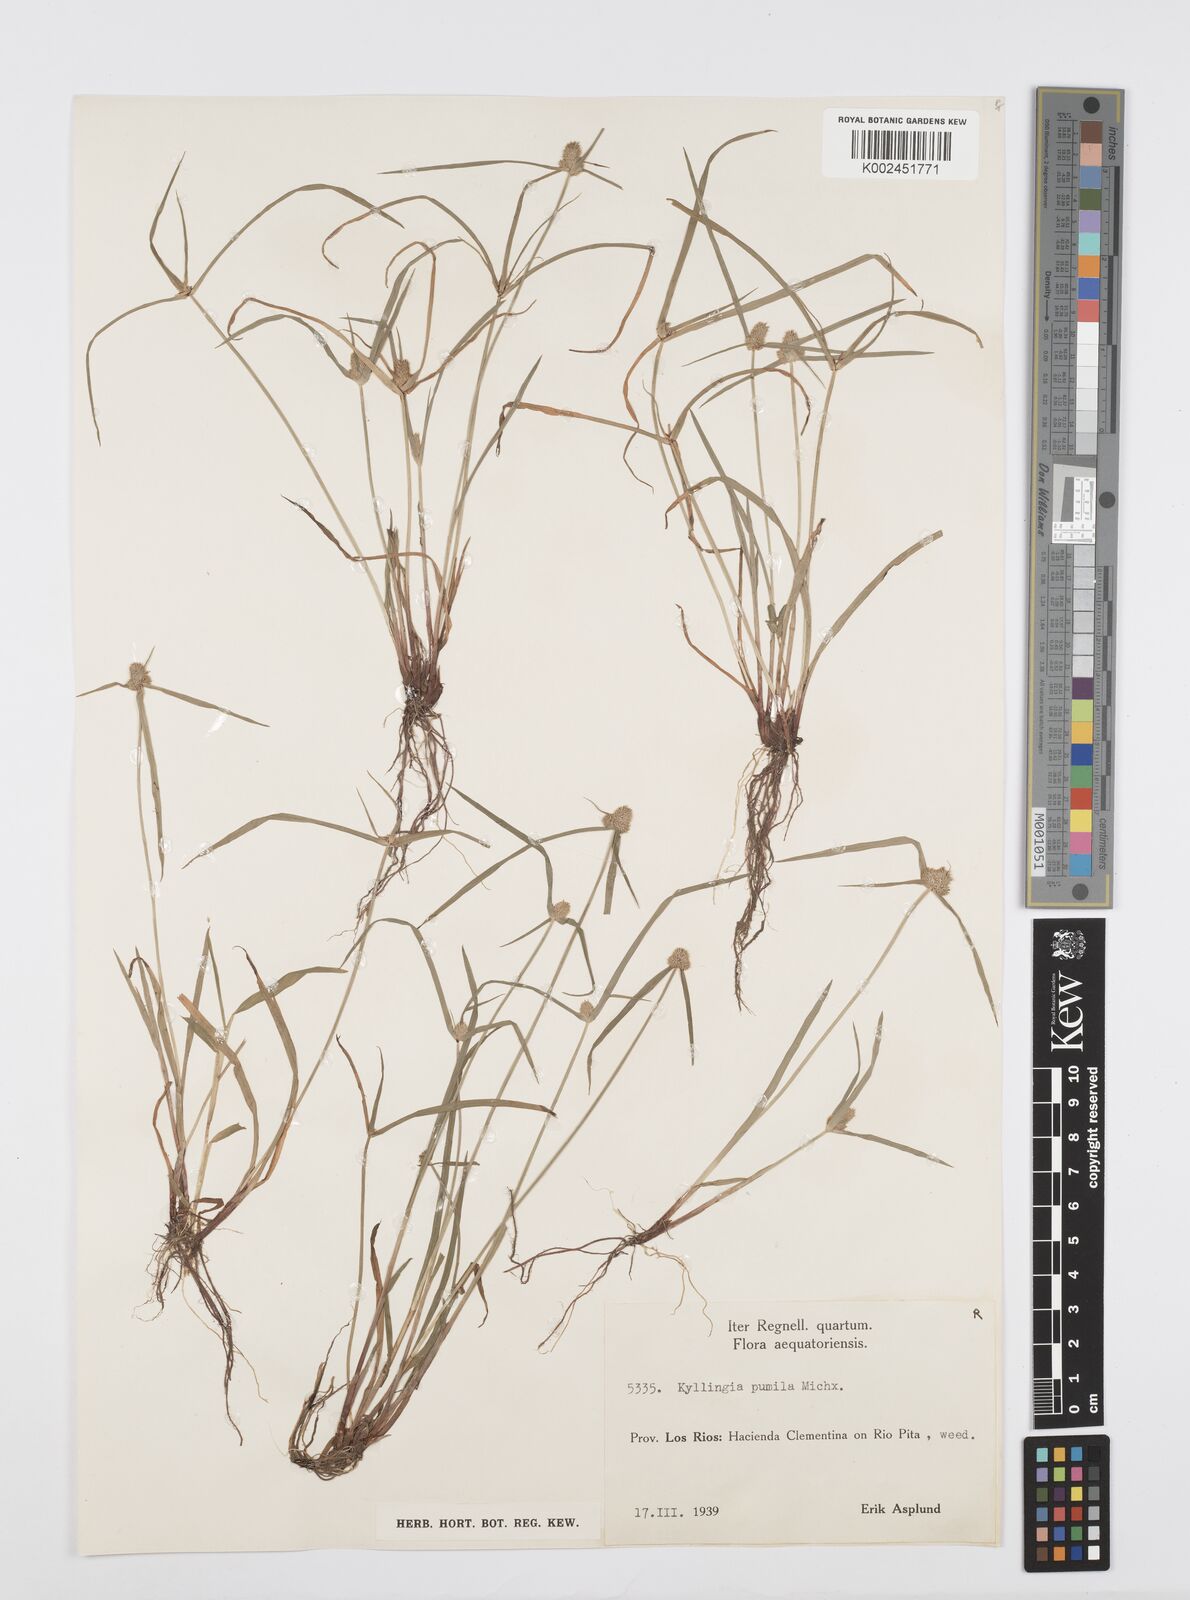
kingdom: Plantae
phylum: Tracheophyta
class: Liliopsida
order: Poales
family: Cyperaceae
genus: Cyperus
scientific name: Cyperus
